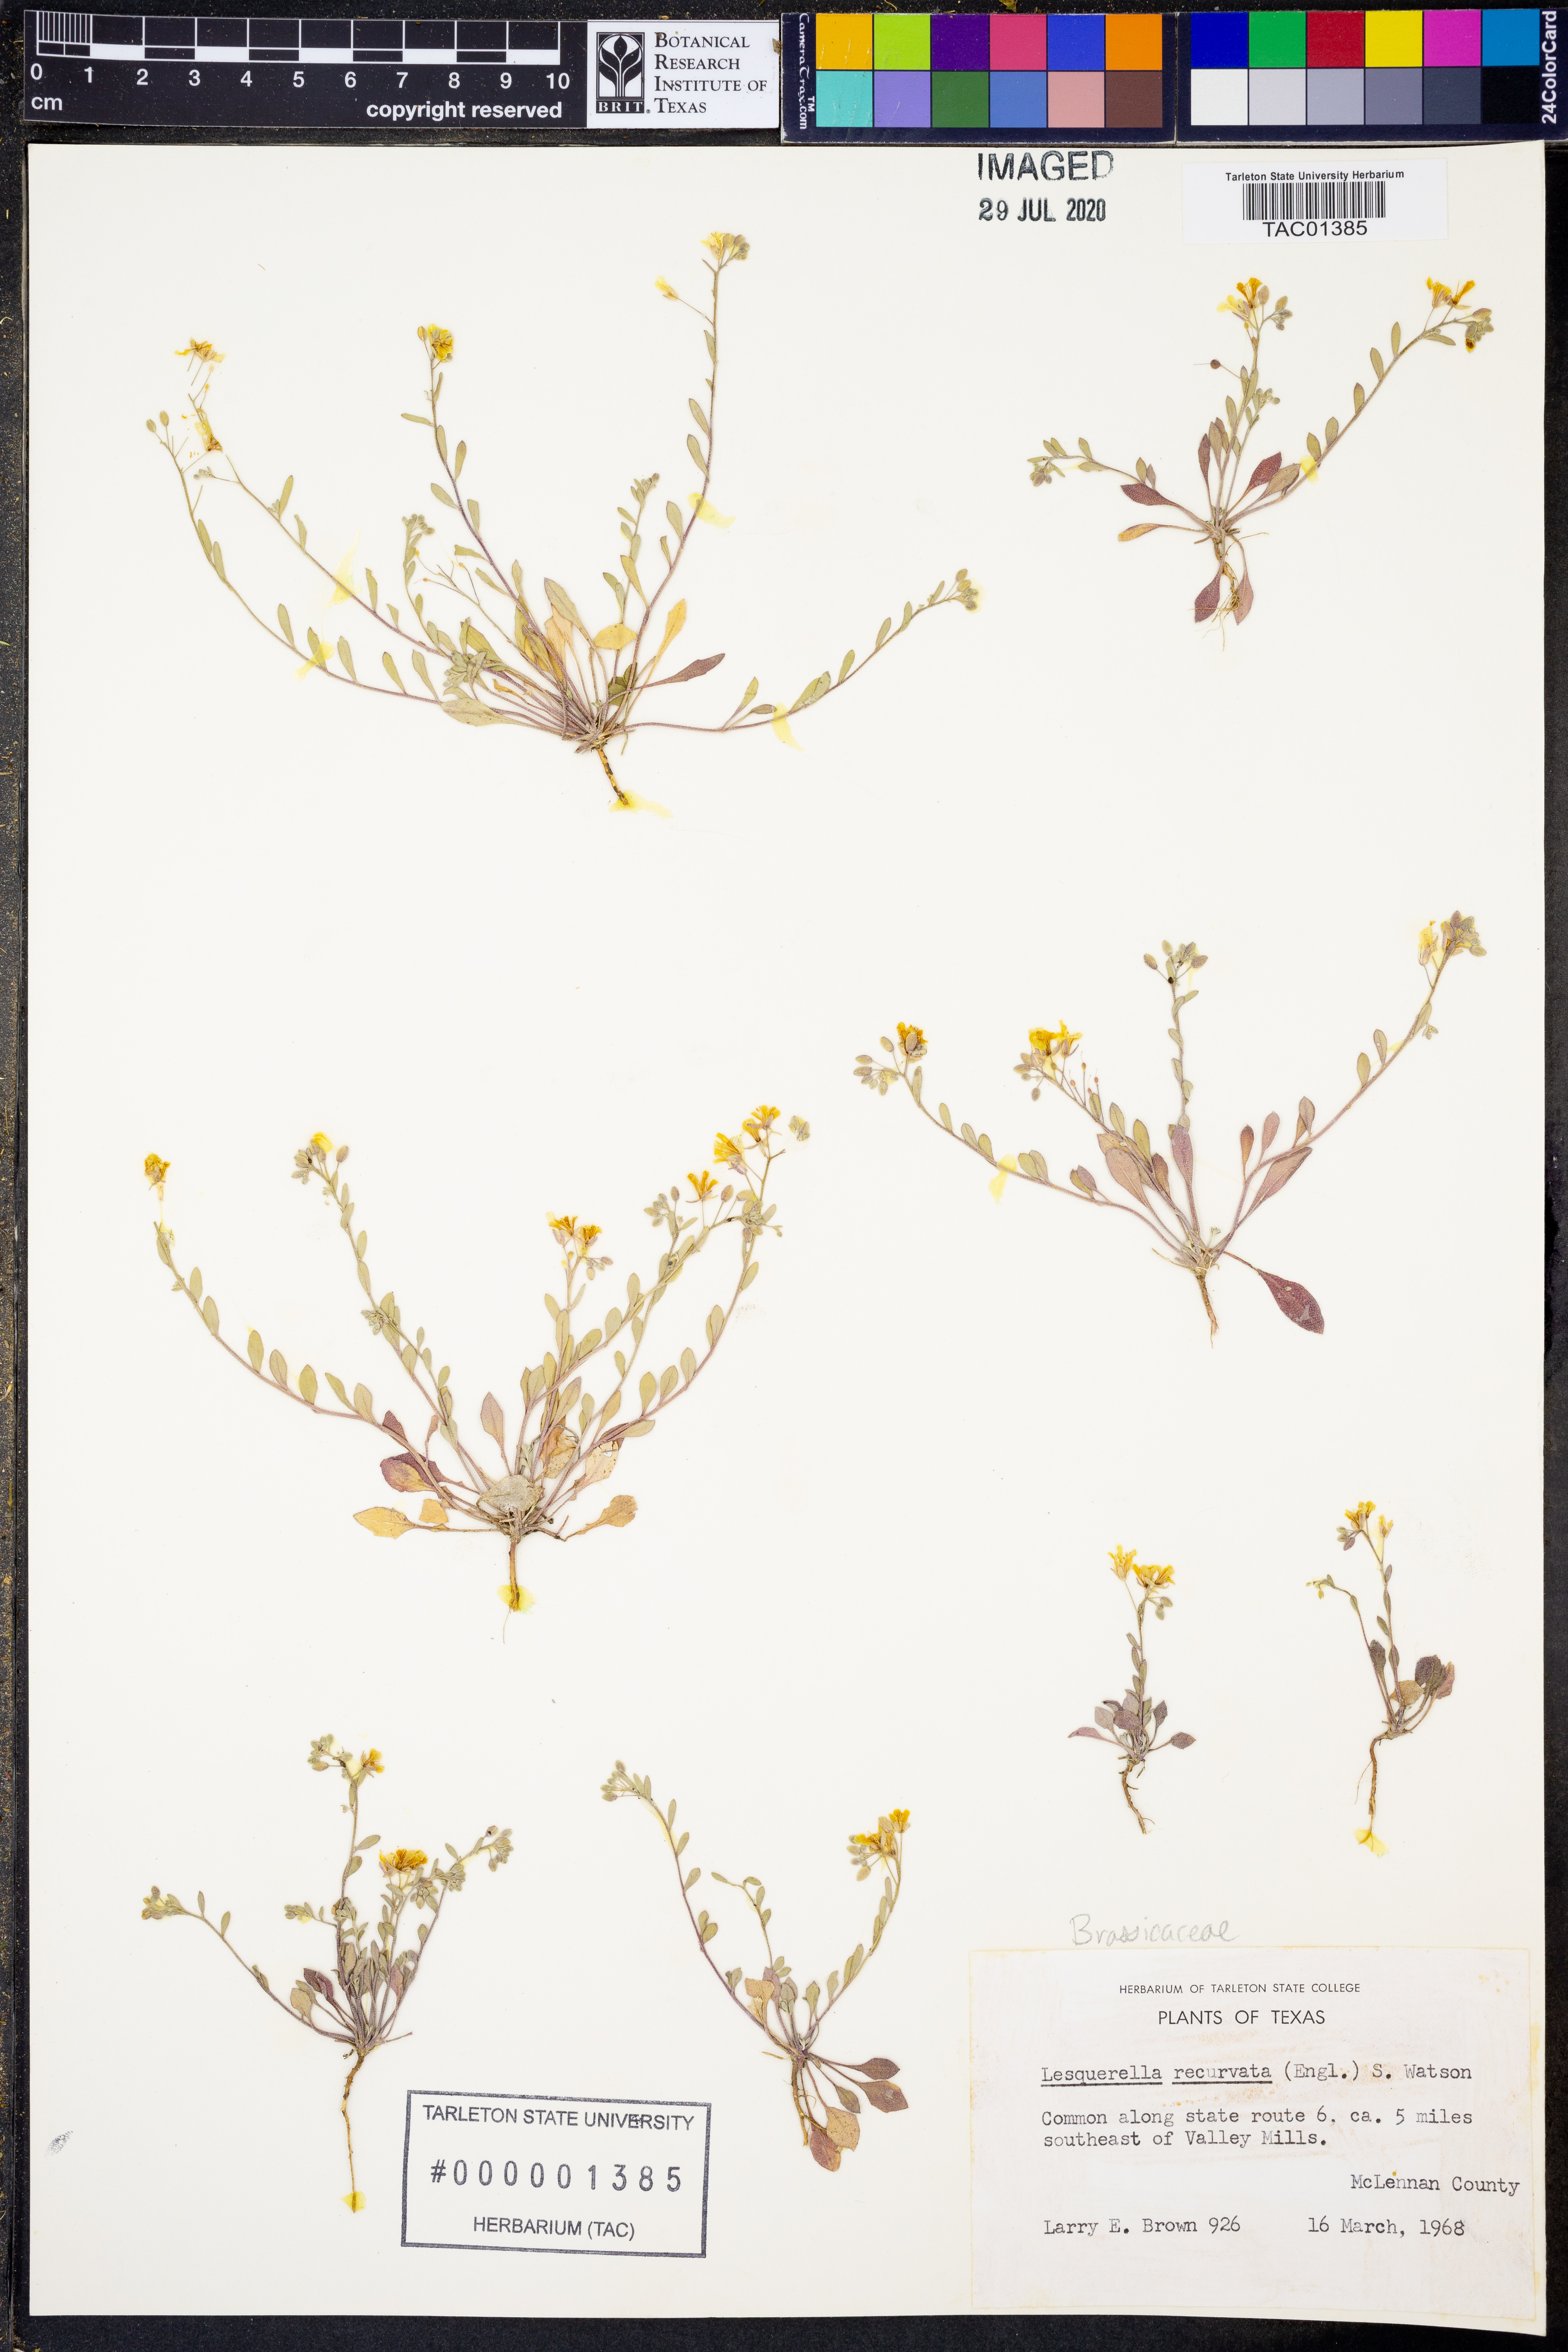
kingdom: Plantae
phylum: Tracheophyta
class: Magnoliopsida
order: Brassicales
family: Brassicaceae
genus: Physaria
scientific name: Physaria recurvata
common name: Gaslight bladderpod
